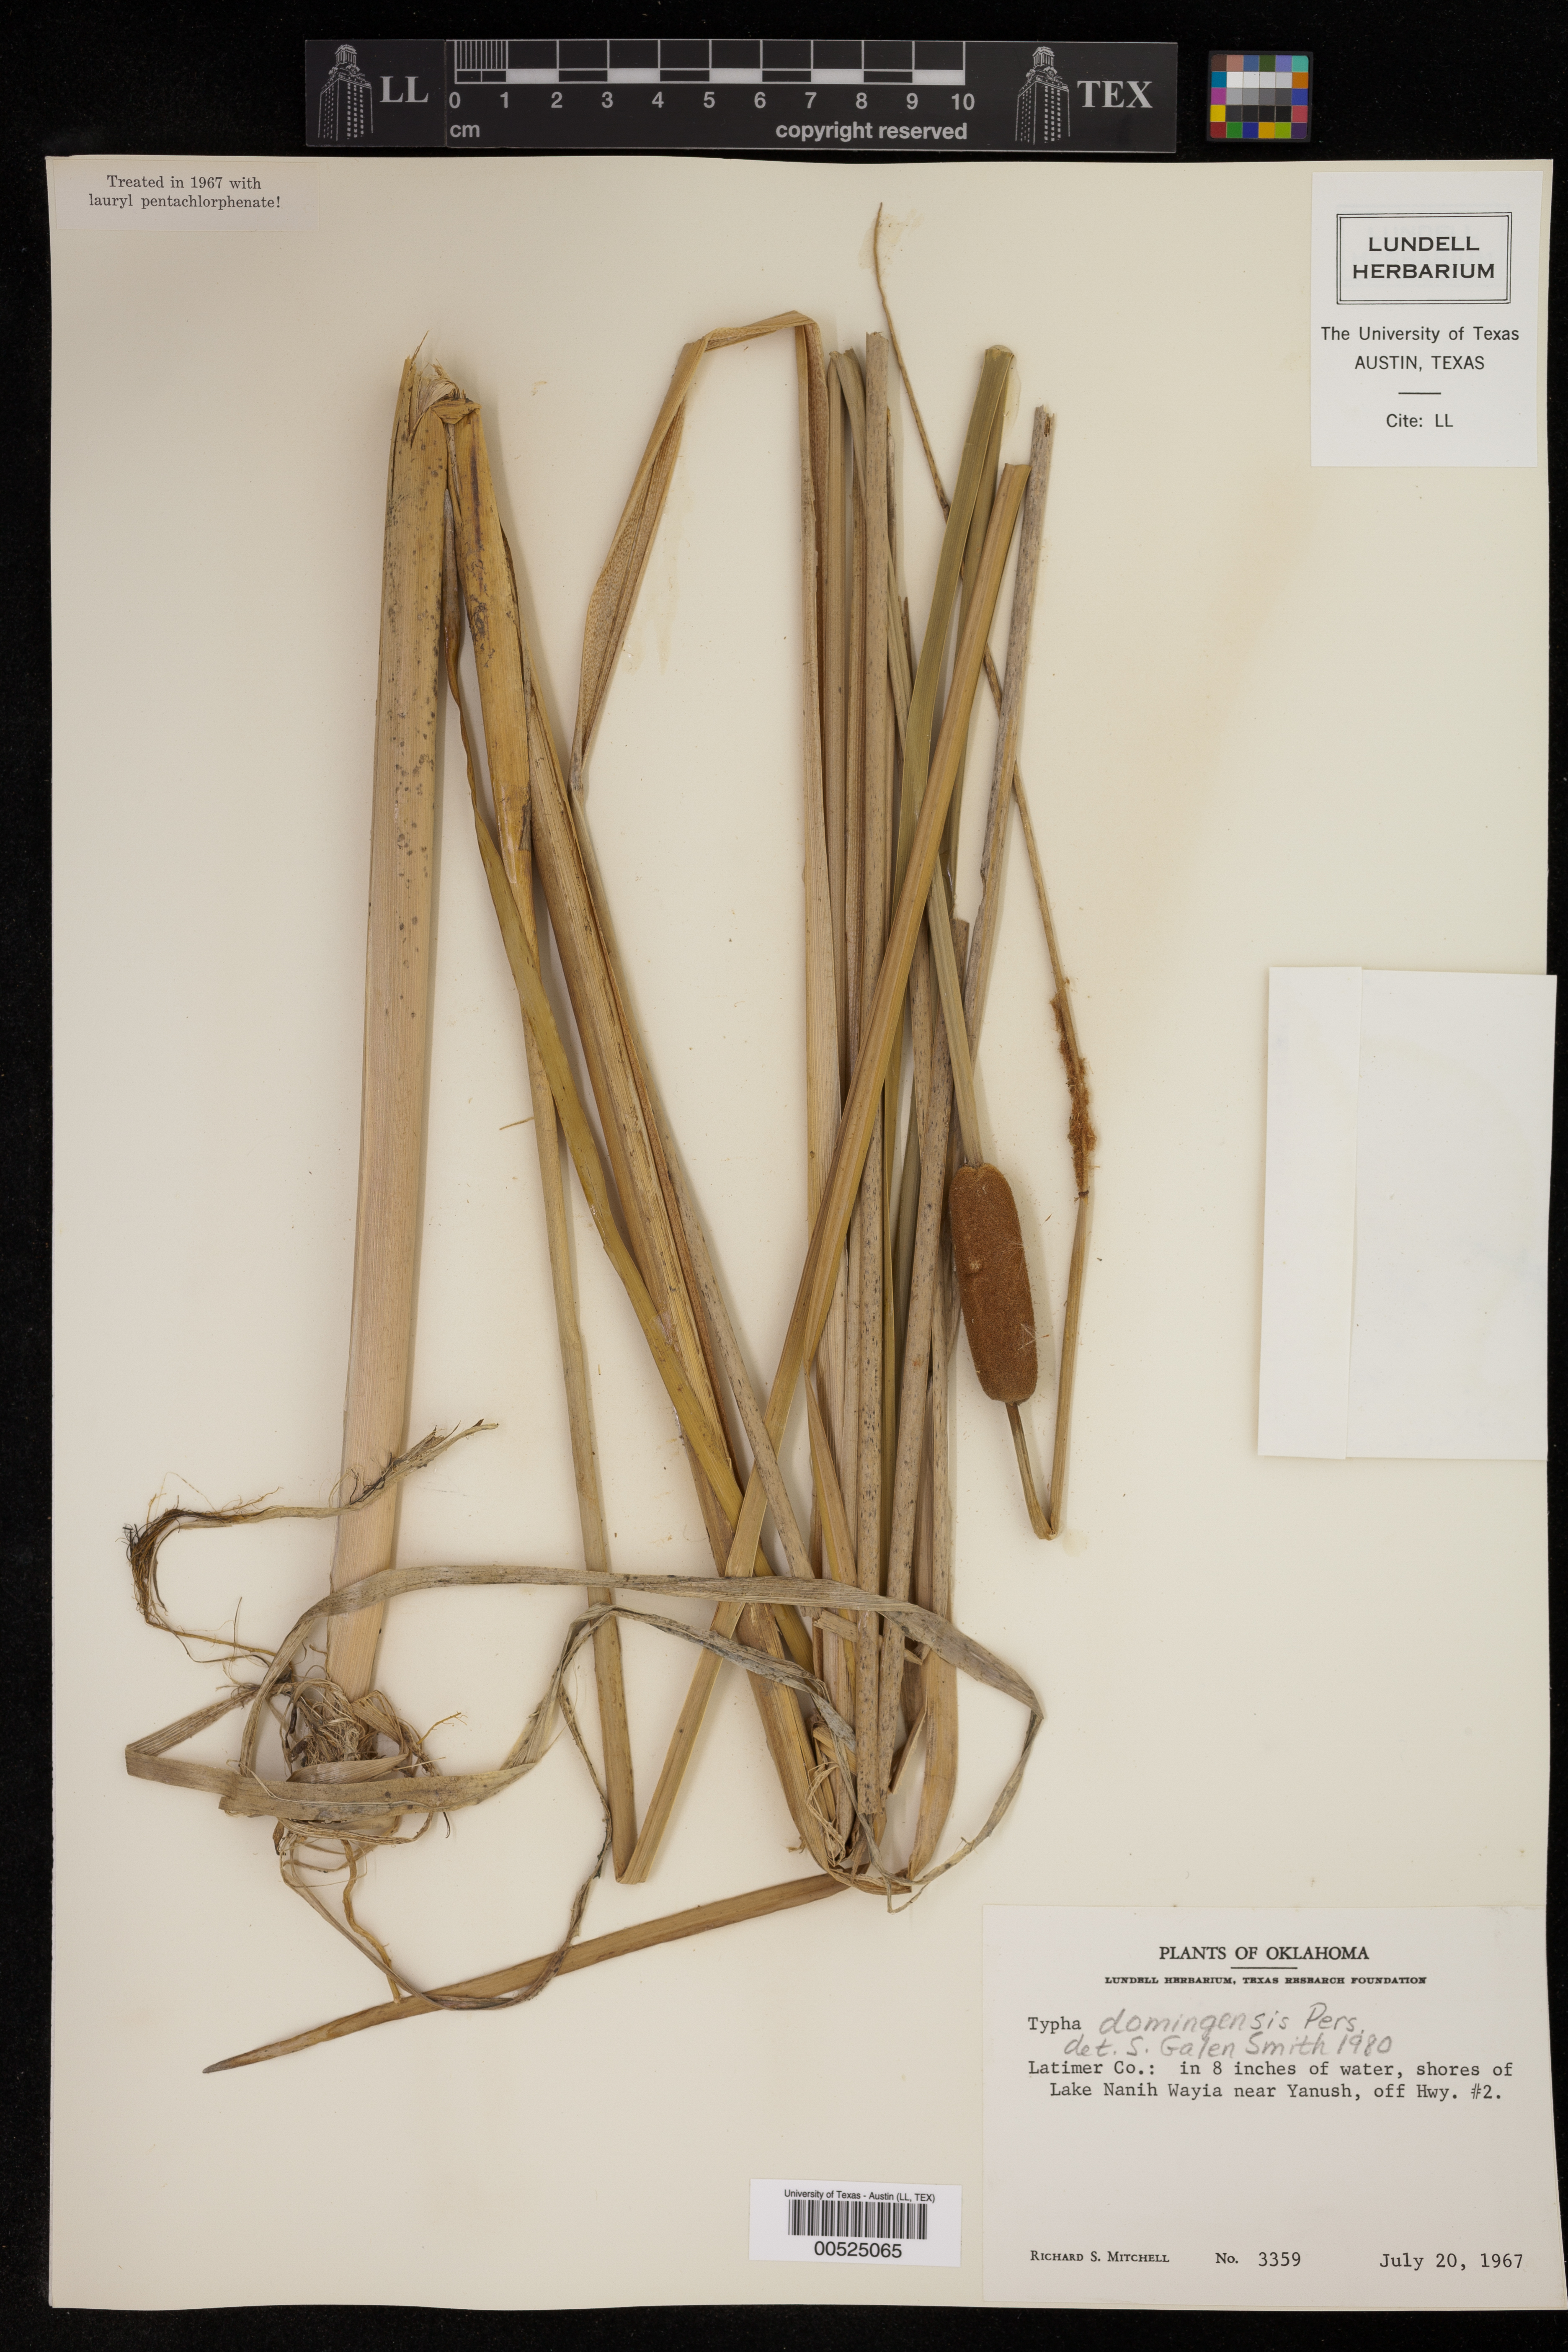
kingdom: Plantae
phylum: Tracheophyta
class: Liliopsida
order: Poales
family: Typhaceae
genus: Typha
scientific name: Typha domingensis
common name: Southern cattail
